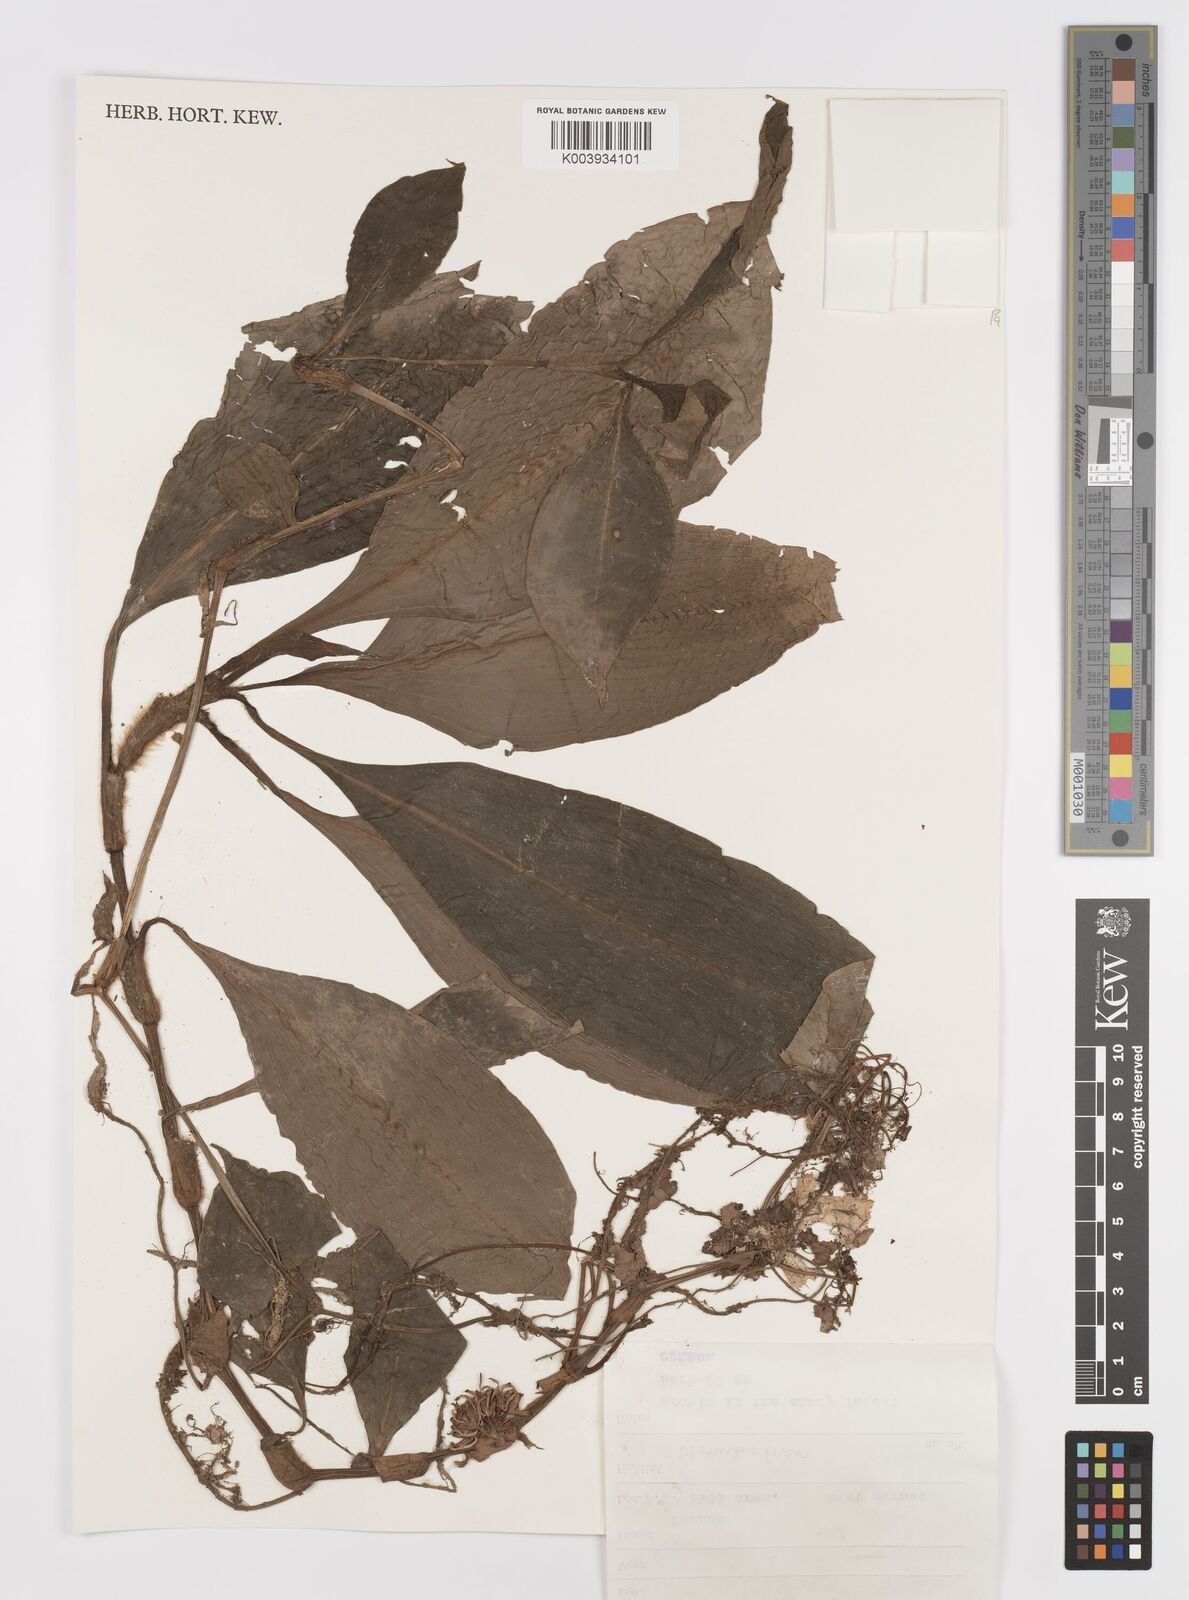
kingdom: Plantae
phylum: Tracheophyta
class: Liliopsida
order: Commelinales
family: Commelinaceae
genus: Amischotolype
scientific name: Amischotolype
